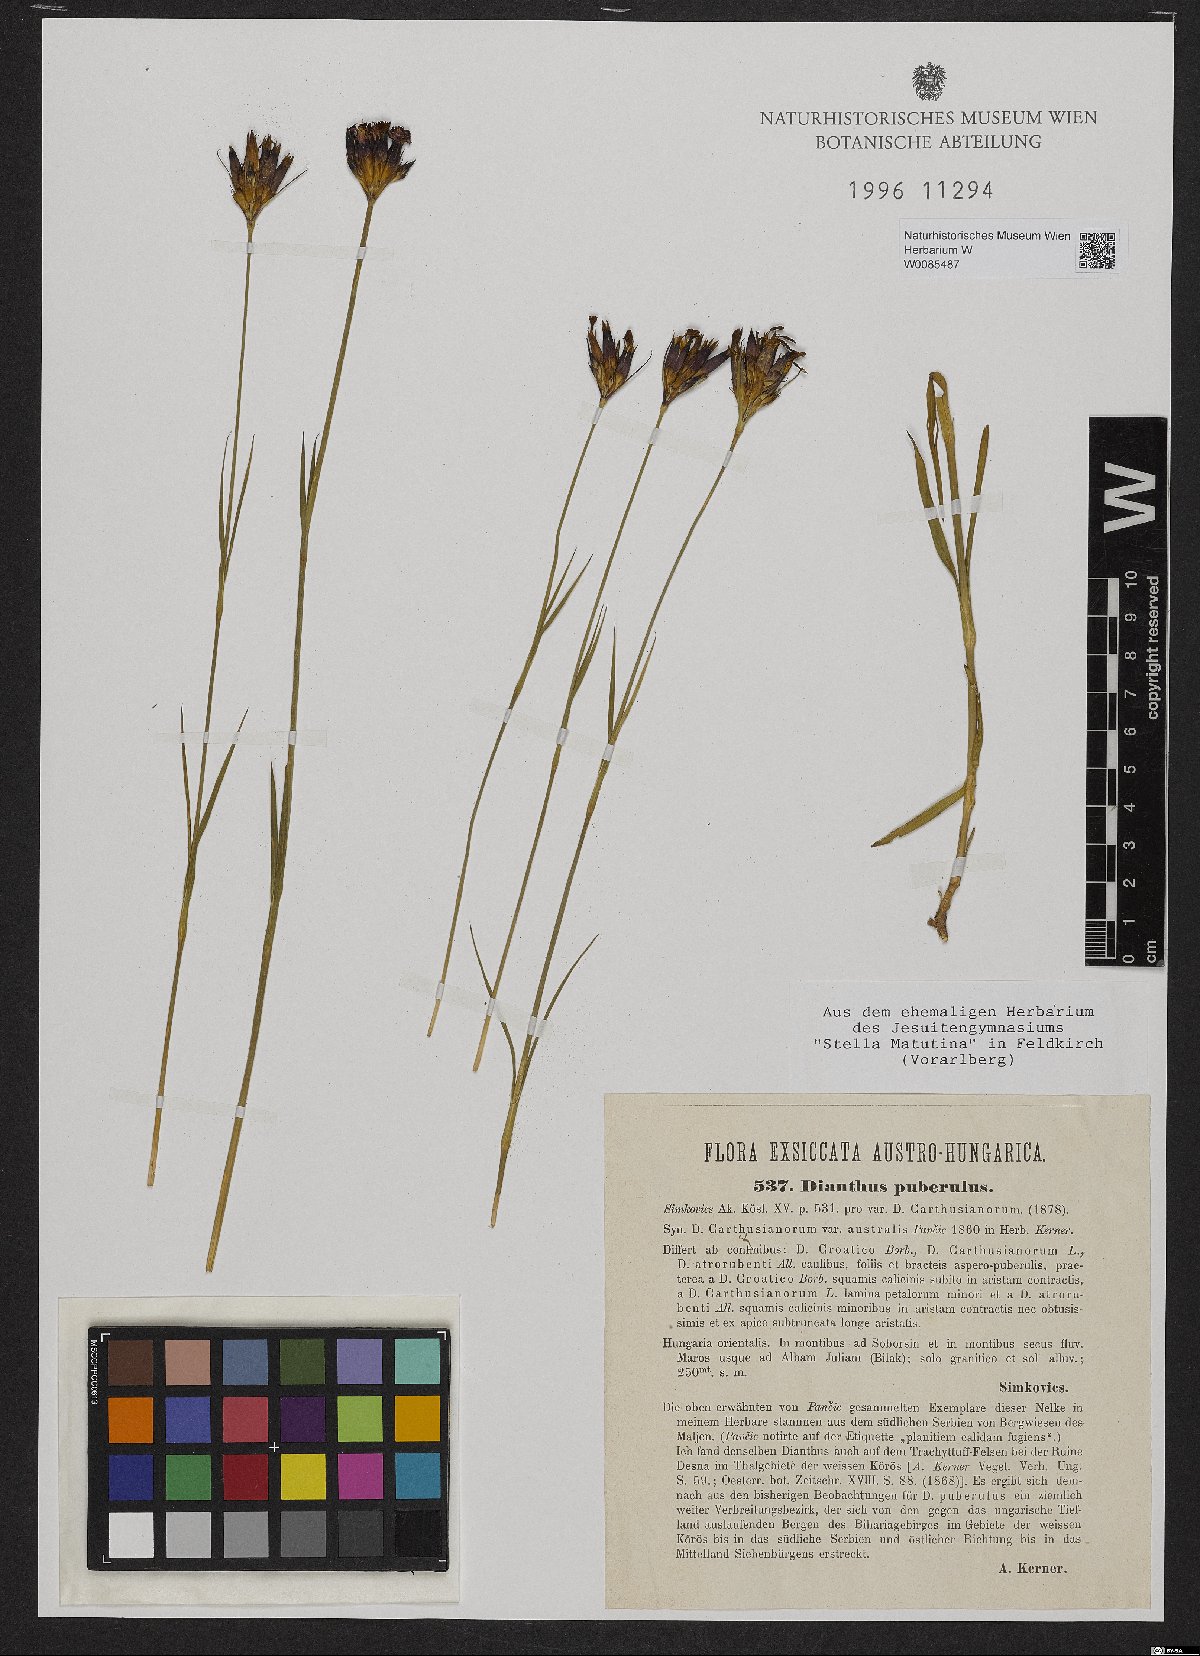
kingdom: Plantae
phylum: Tracheophyta
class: Magnoliopsida
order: Caryophyllales
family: Caryophyllaceae
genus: Dianthus
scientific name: Dianthus carthusianorum
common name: Carthusian pink
